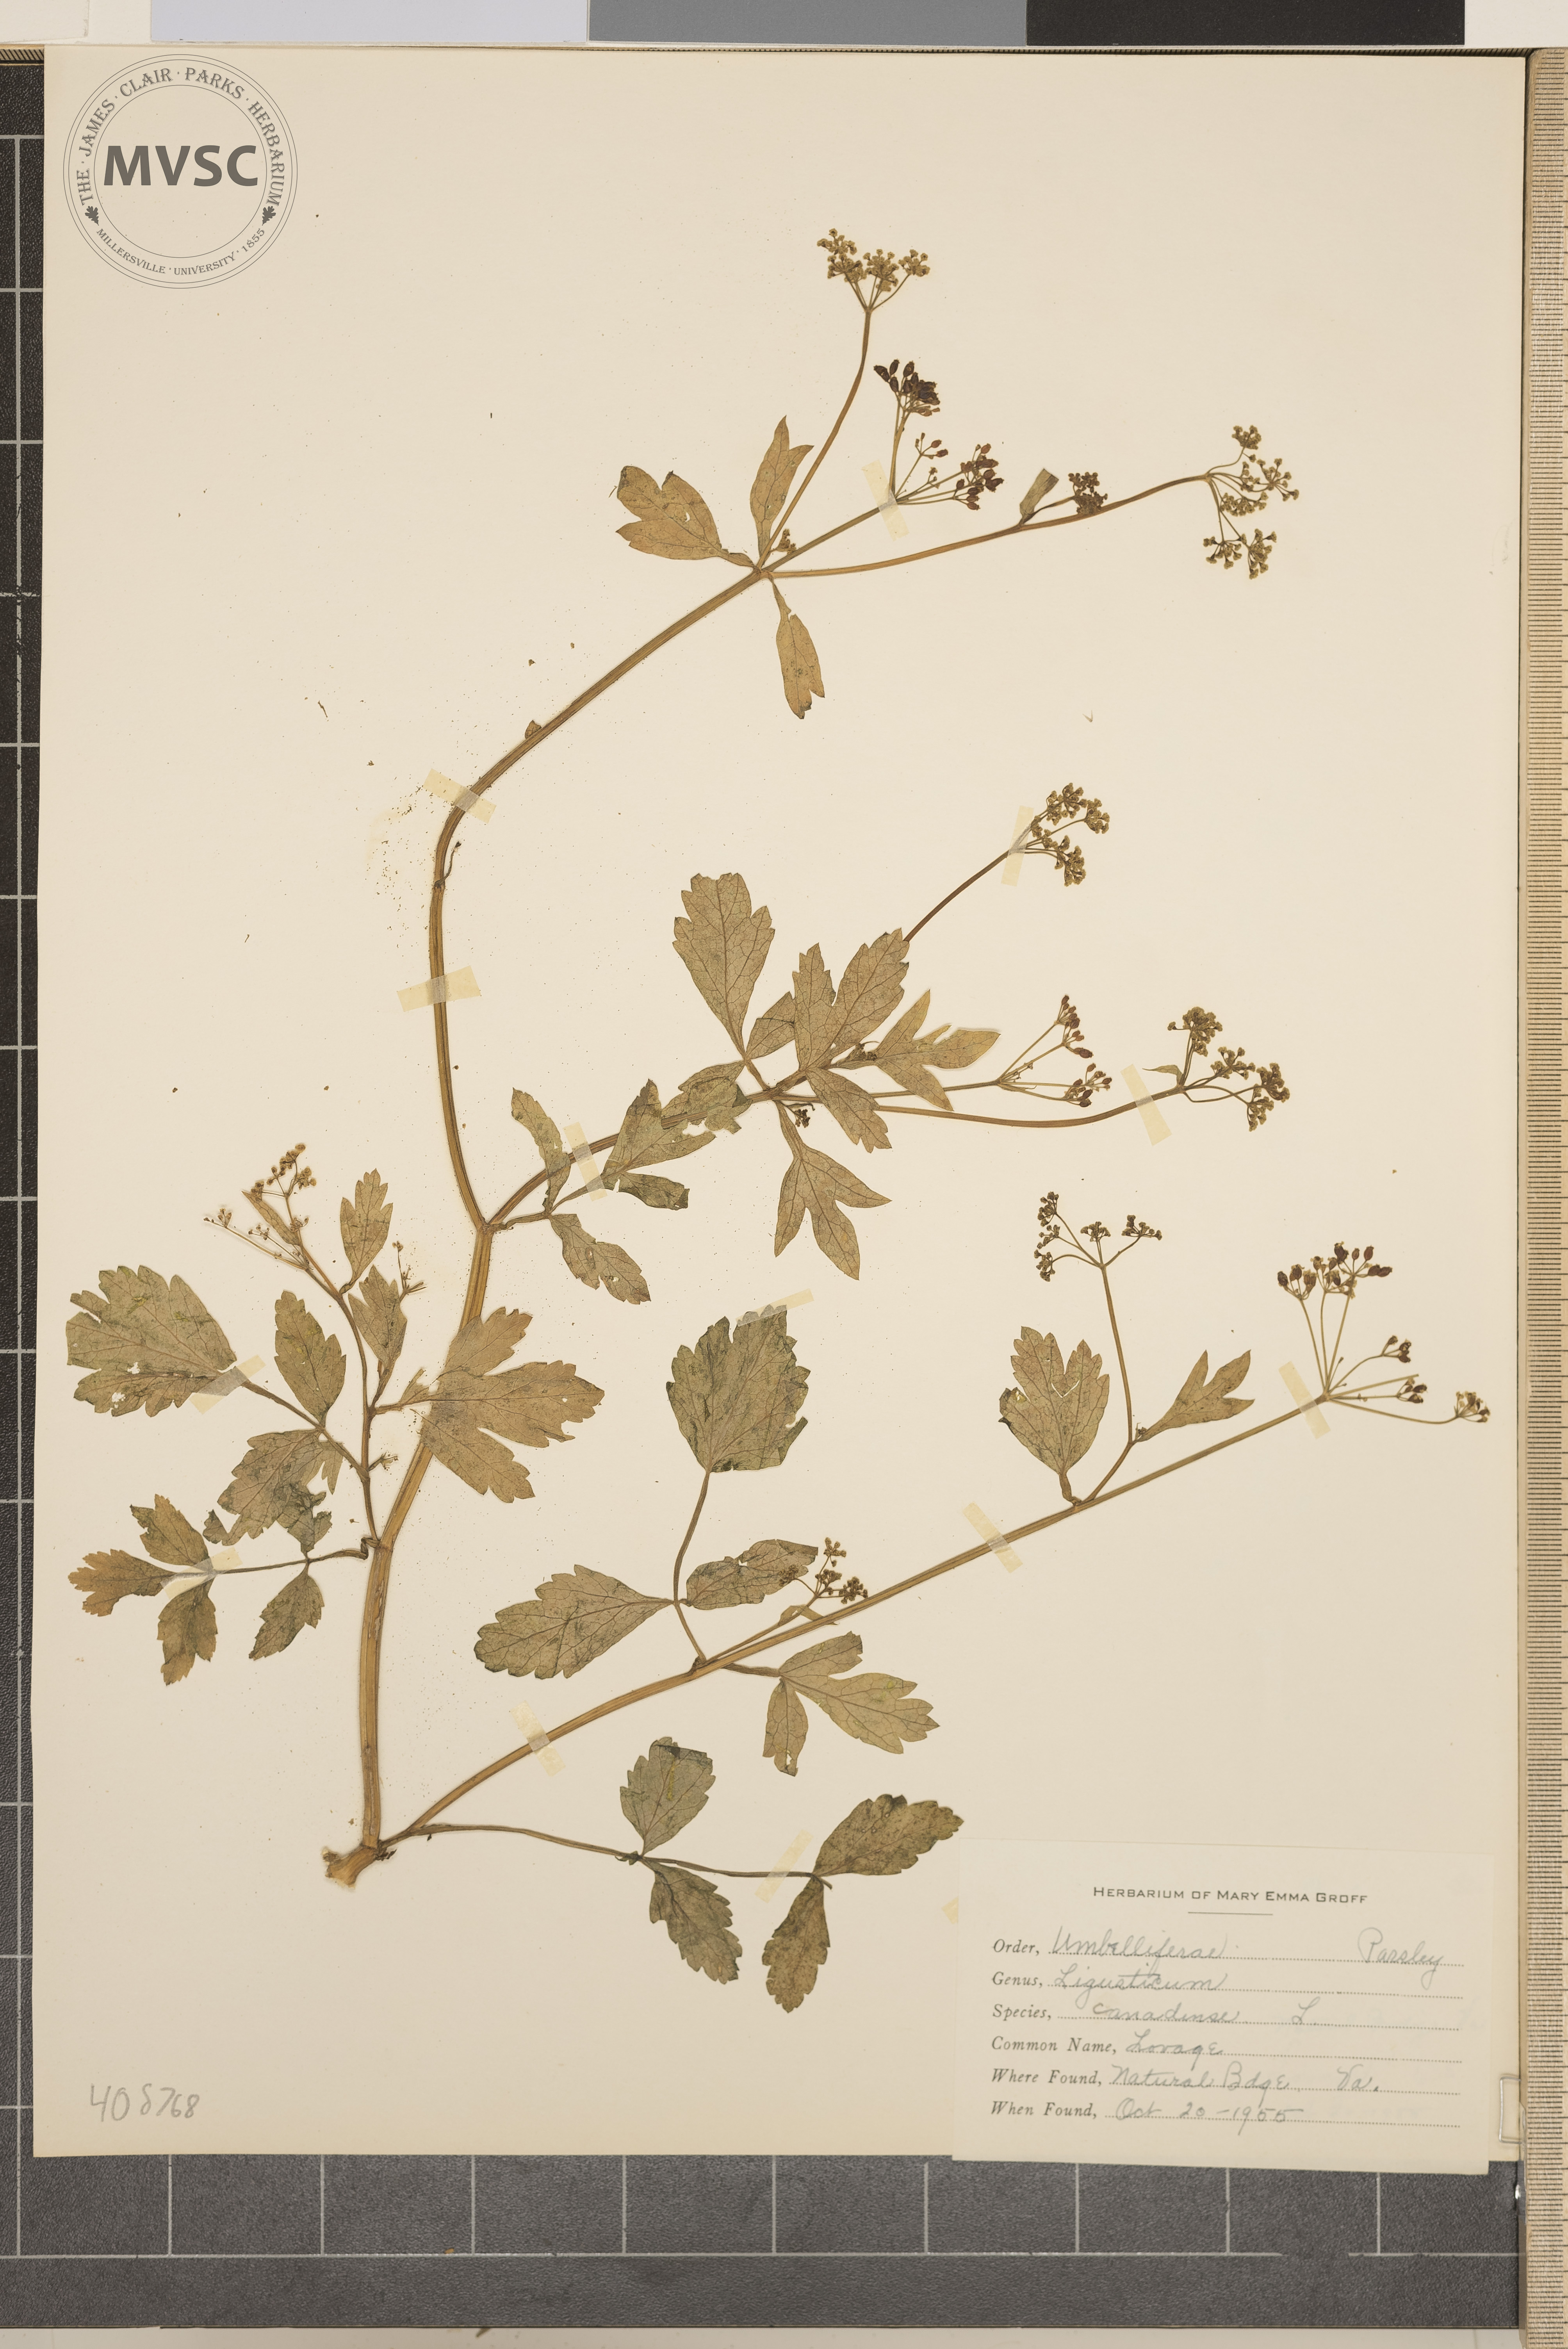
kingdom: Plantae
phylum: Tracheophyta
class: Magnoliopsida
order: Apiales
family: Apiaceae
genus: Ligusticum
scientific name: Ligusticum canadense
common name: Lovage
